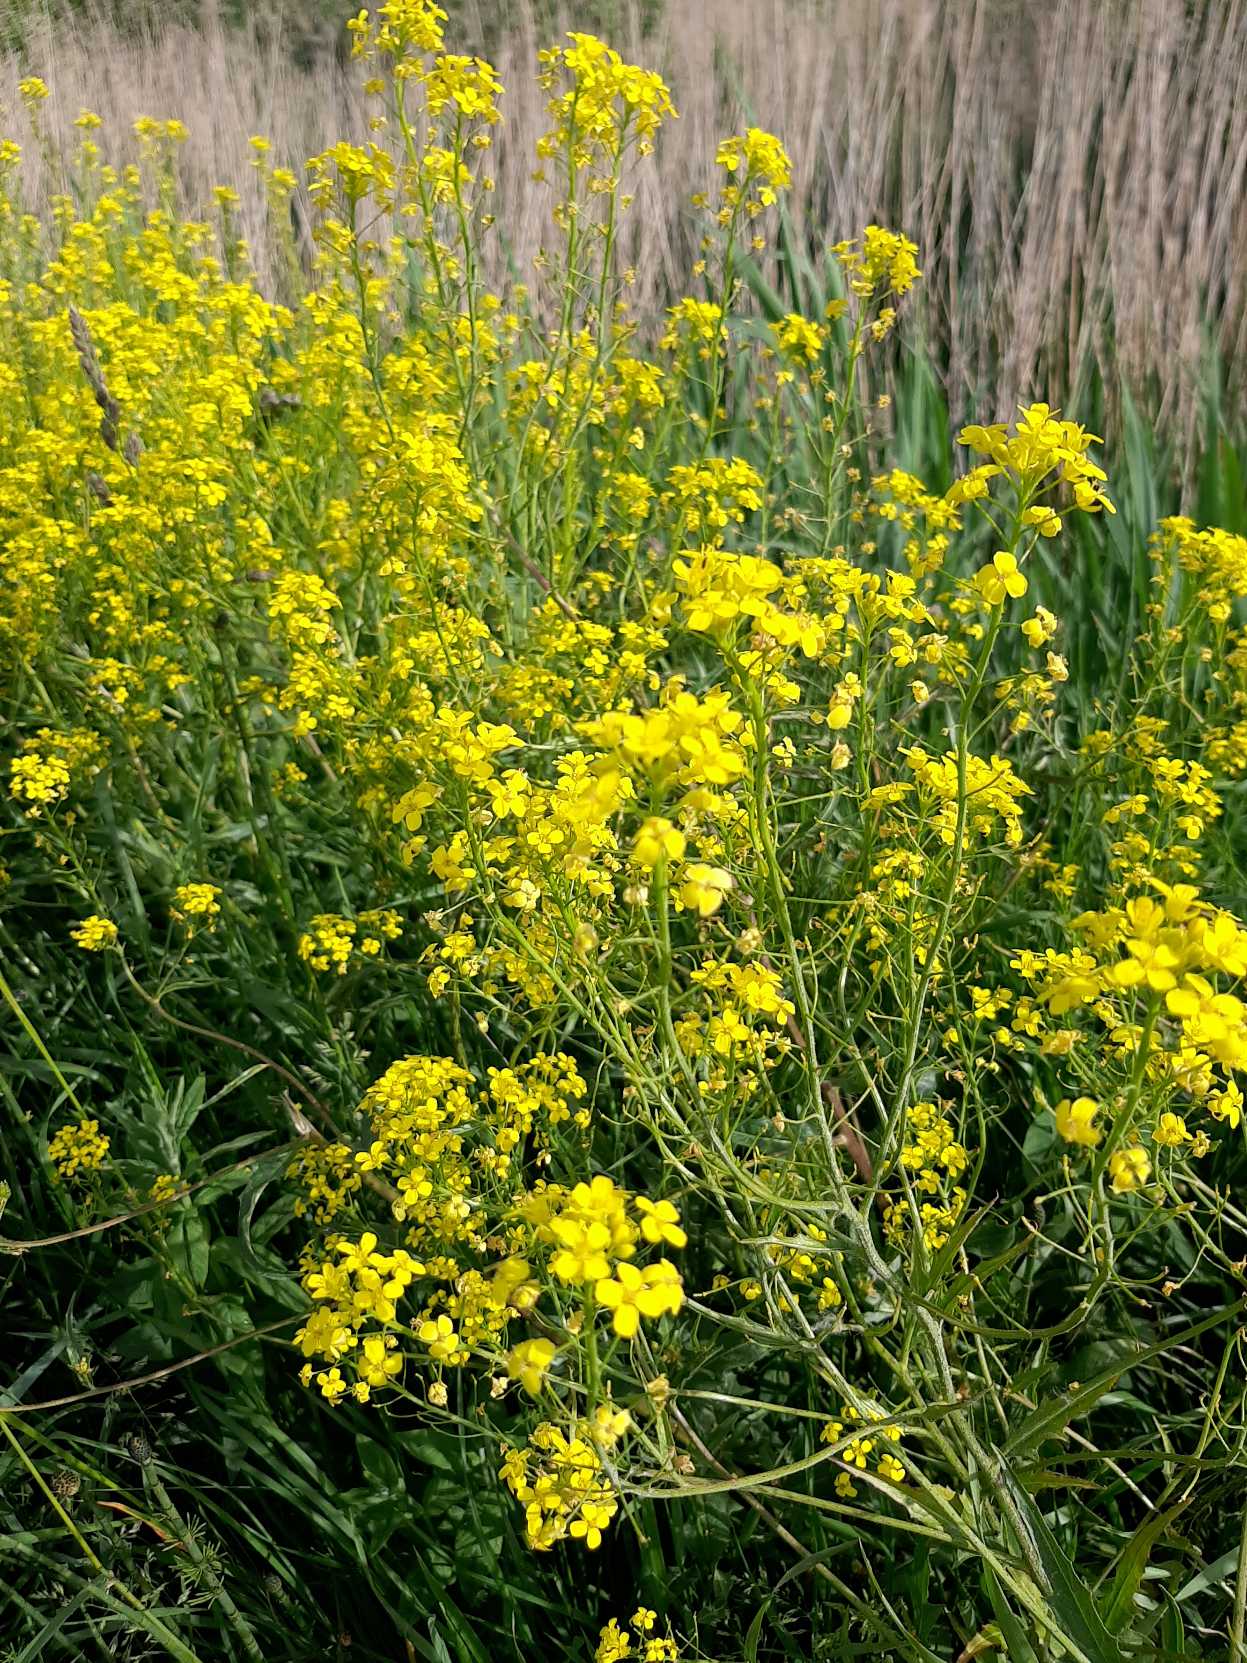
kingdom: Plantae
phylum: Tracheophyta
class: Magnoliopsida
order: Brassicales
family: Brassicaceae
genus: Bunias
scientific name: Bunias orientalis
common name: Takkeklap
